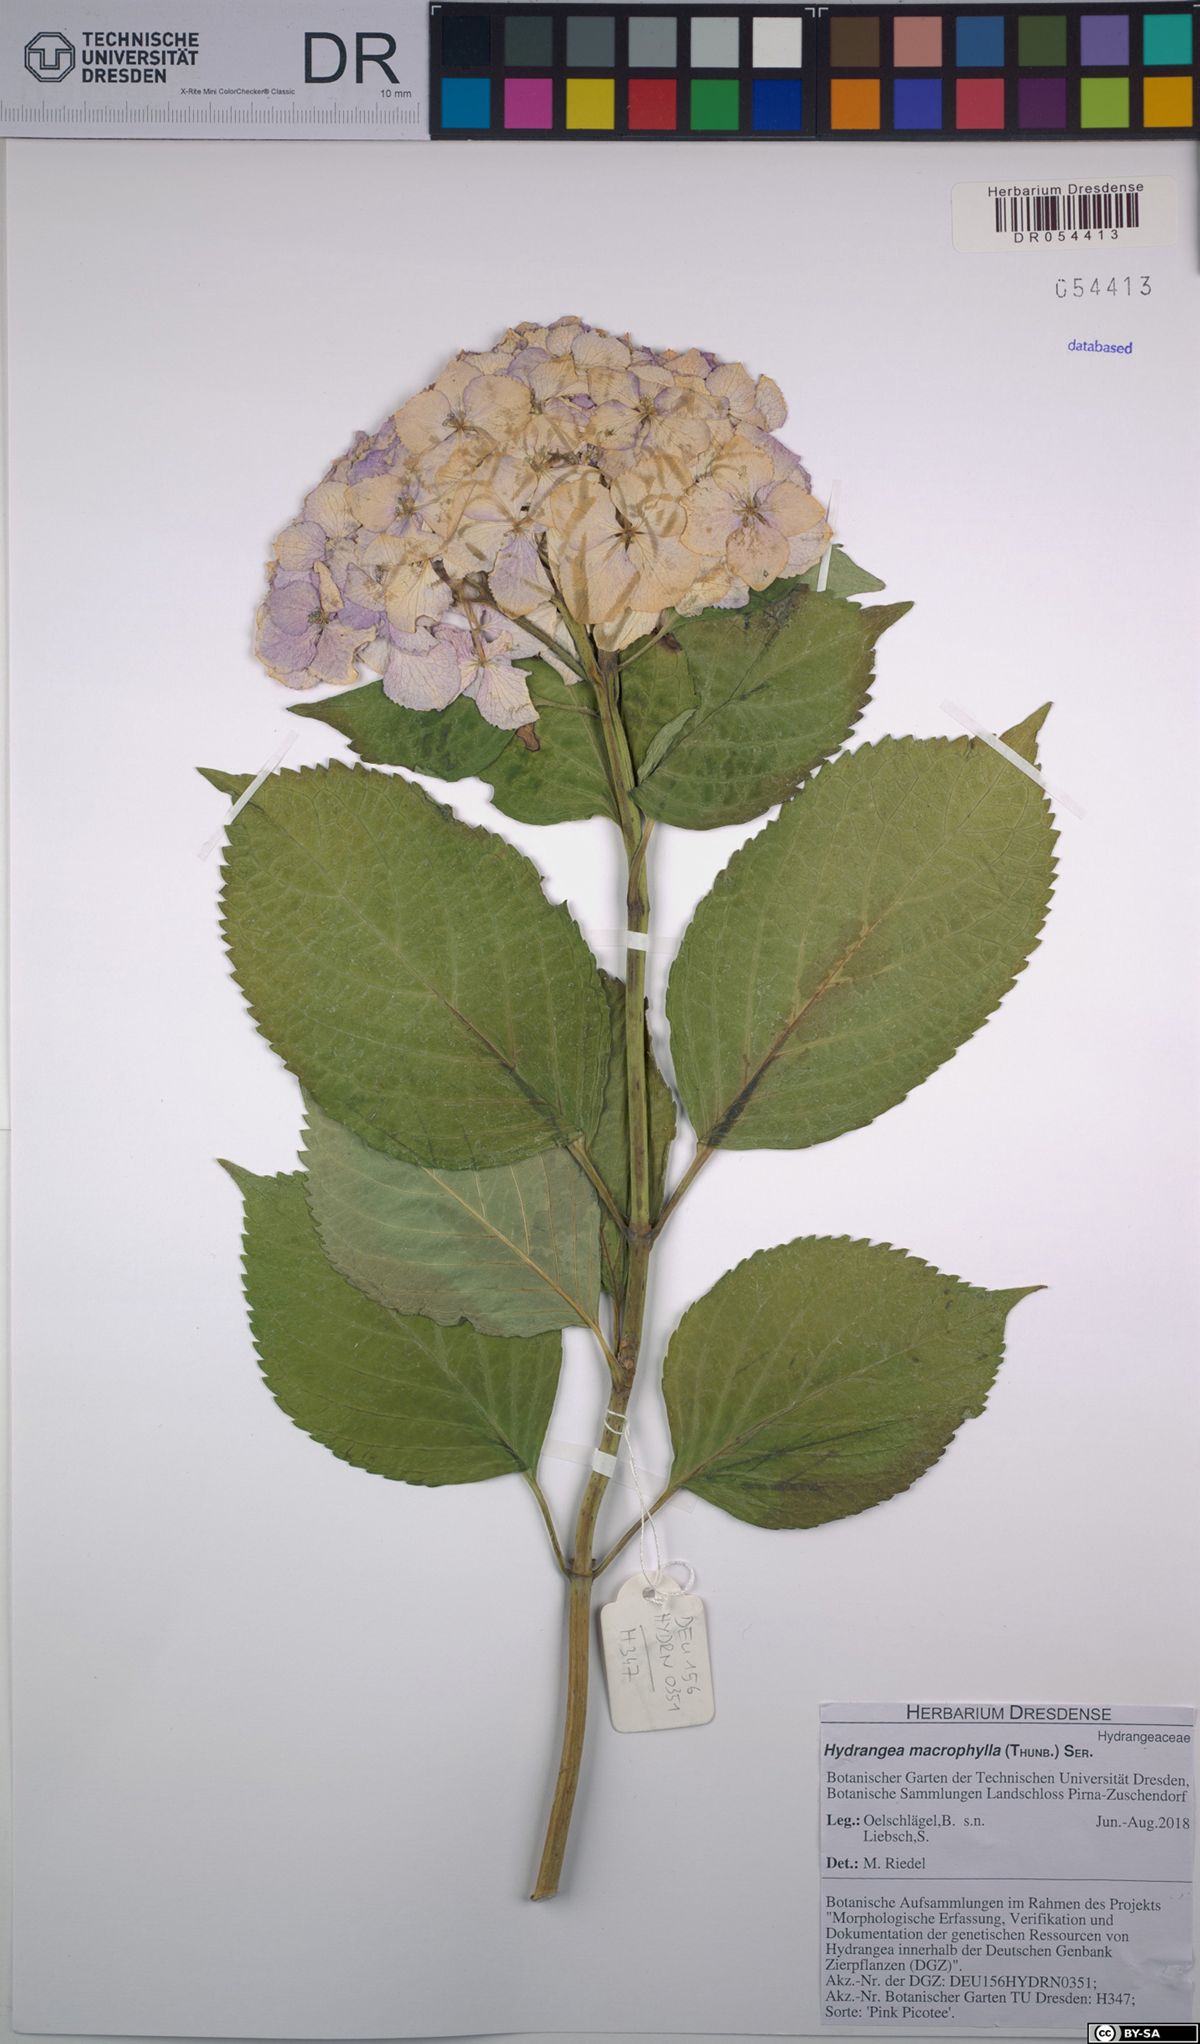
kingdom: Plantae
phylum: Tracheophyta
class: Magnoliopsida
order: Cornales
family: Hydrangeaceae
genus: Hydrangea
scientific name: Hydrangea macrophylla
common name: Hydrangea
